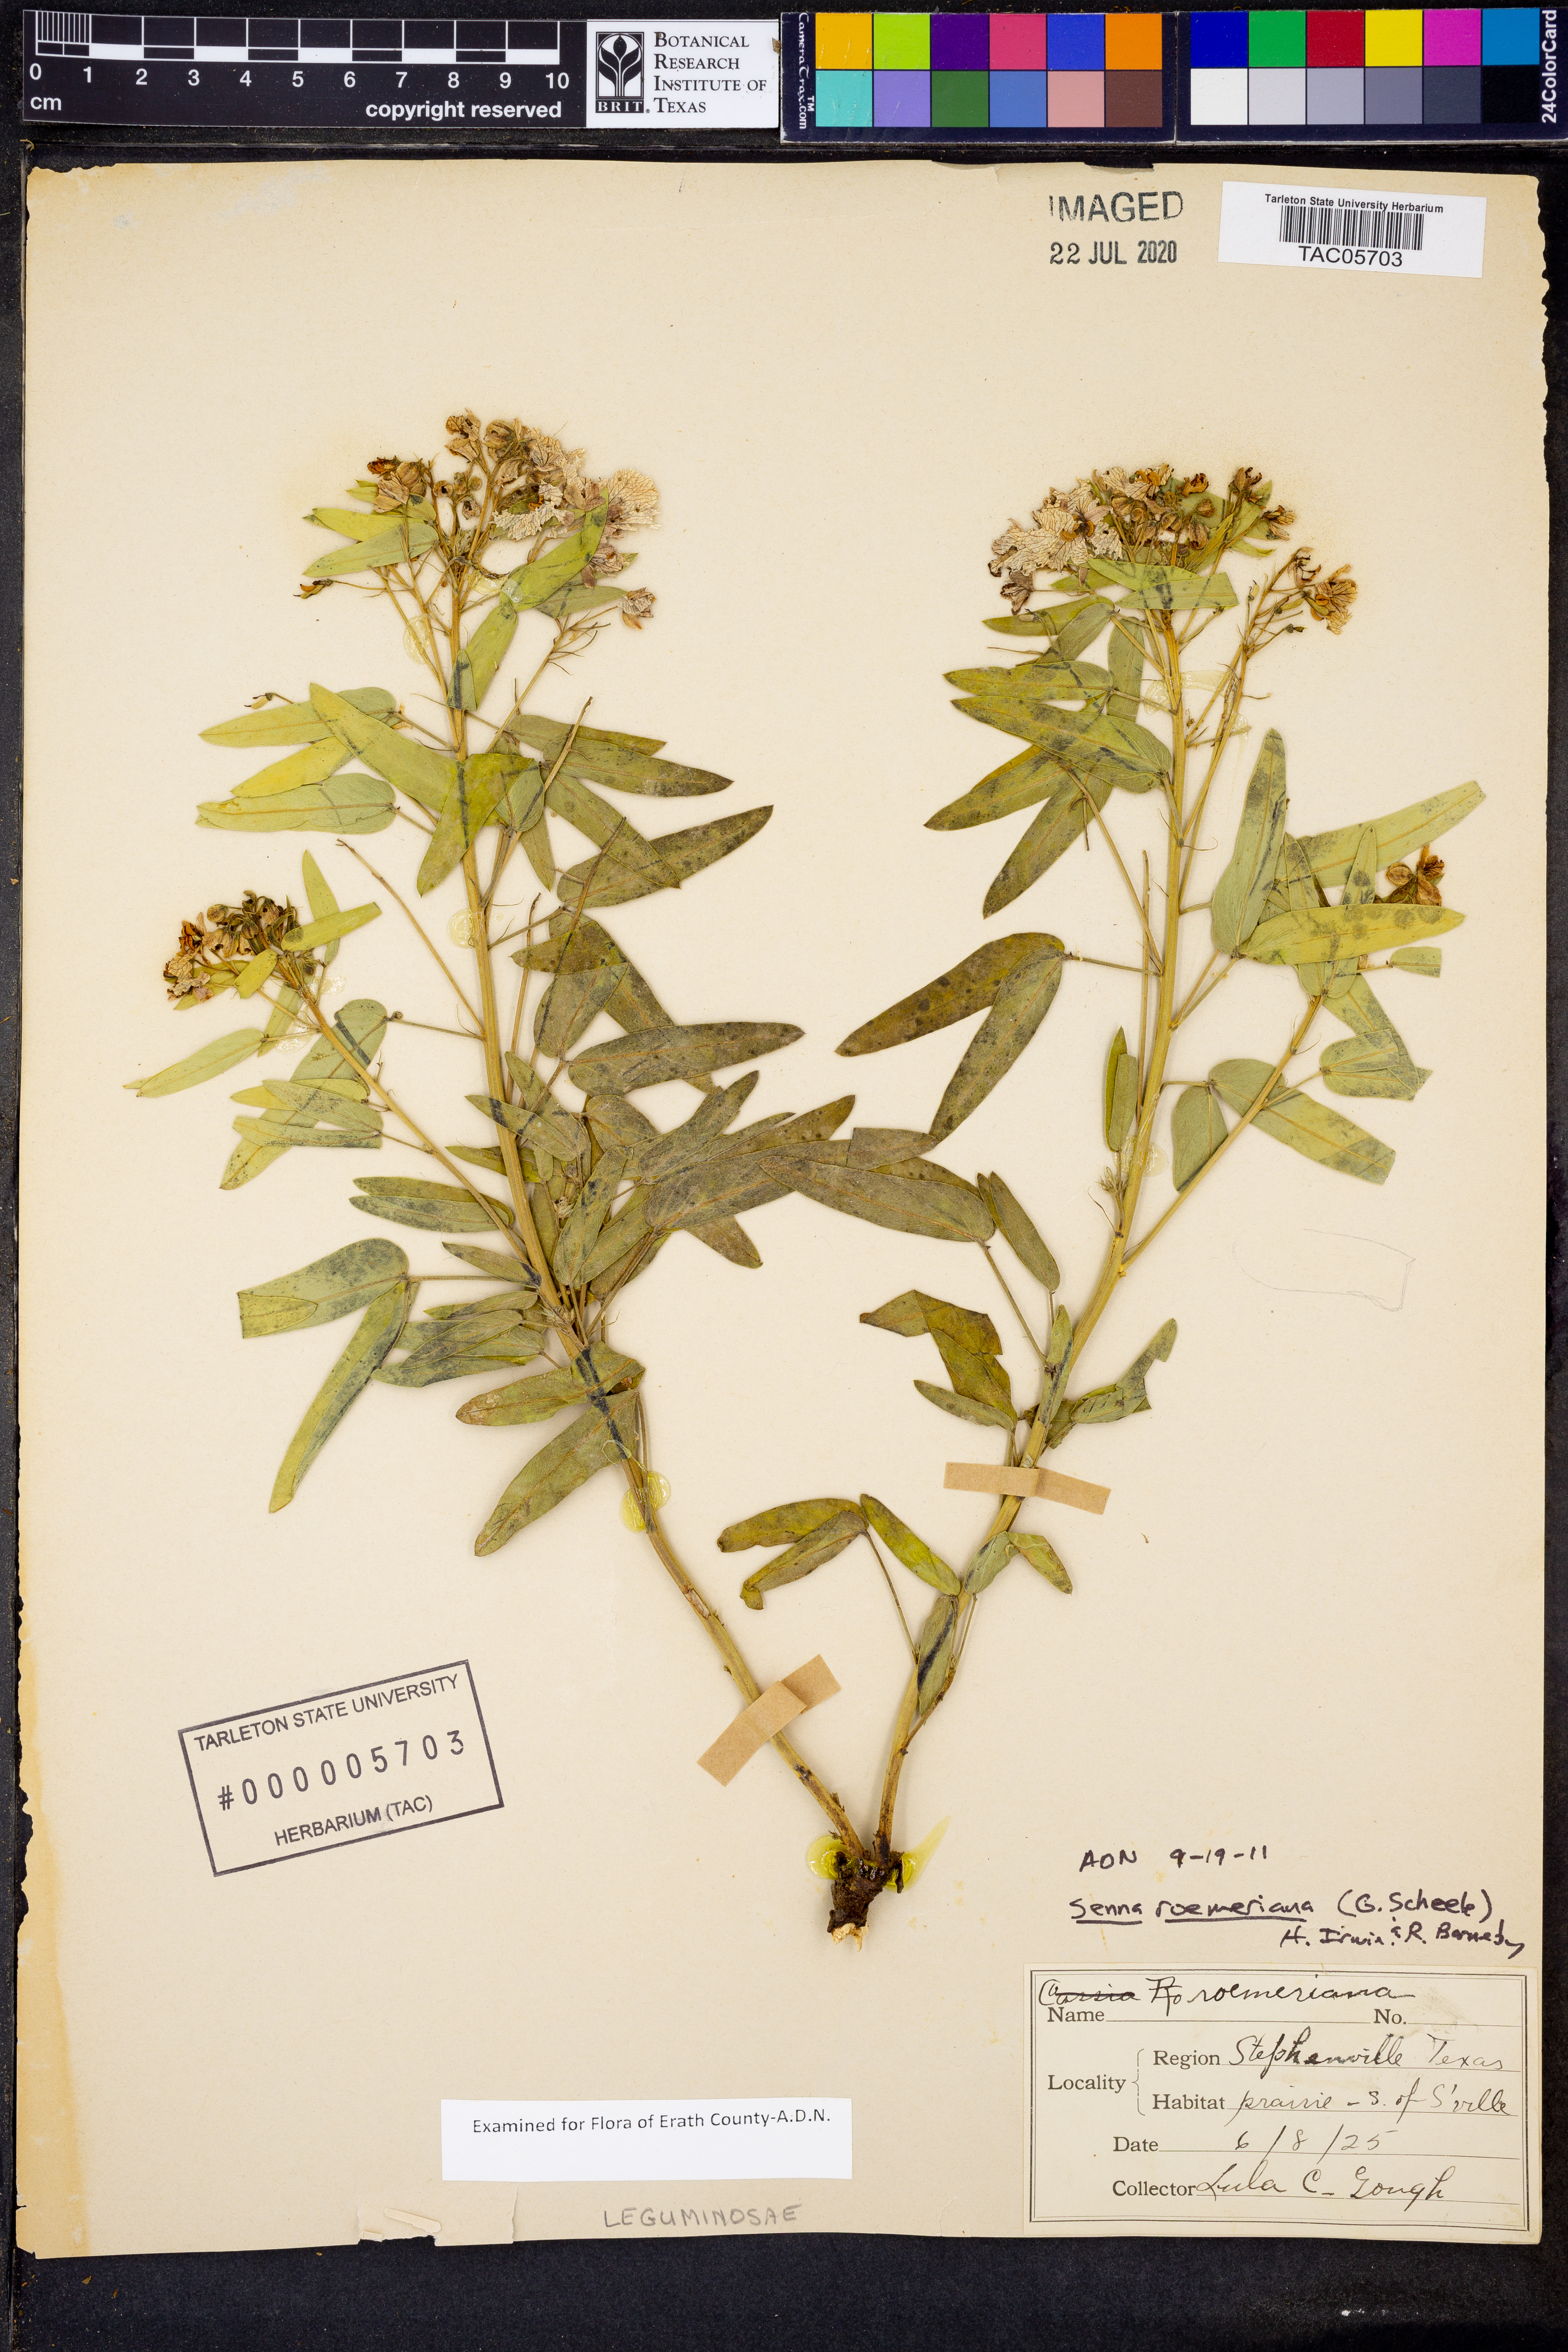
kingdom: Plantae
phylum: Tracheophyta
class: Magnoliopsida
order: Fabales
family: Fabaceae
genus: Senna
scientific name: Senna roemeriana
